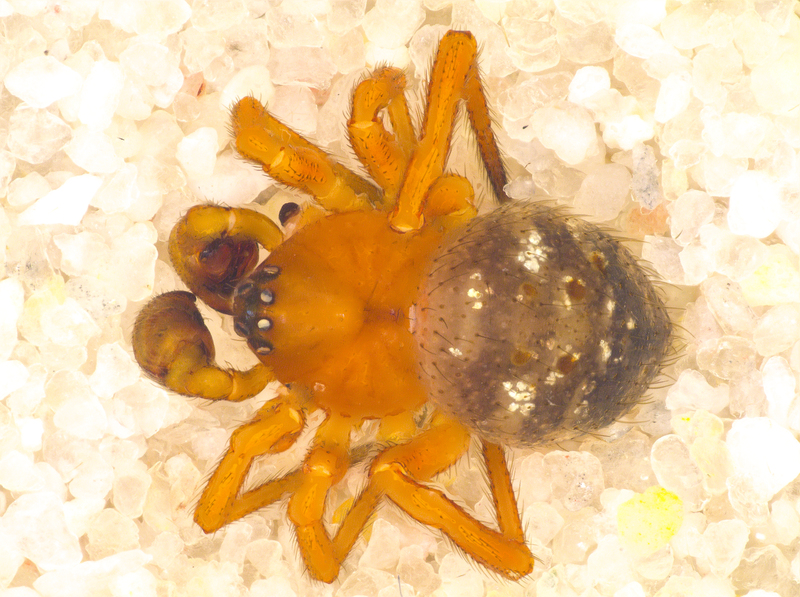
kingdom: Animalia
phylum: Arthropoda
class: Arachnida
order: Araneae
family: Theridiidae
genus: Euryopis
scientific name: Euryopis flavomaculata
